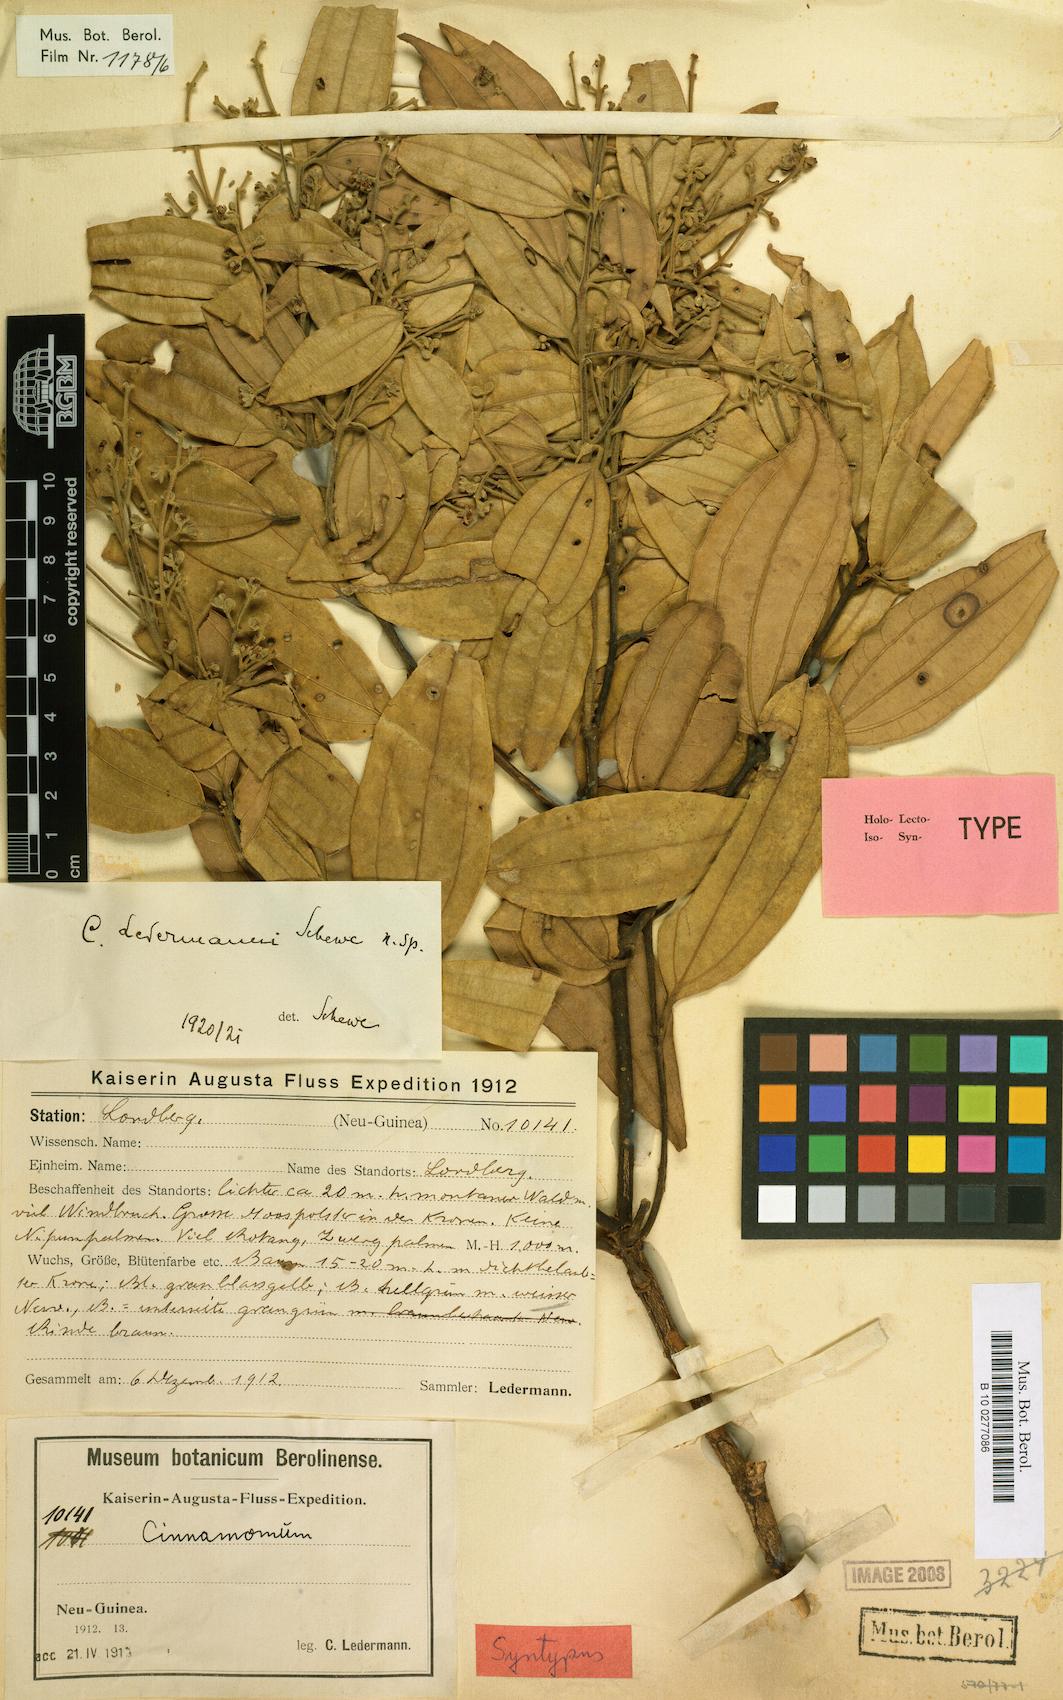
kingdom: Plantae
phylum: Tracheophyta
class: Magnoliopsida
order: Laurales
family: Lauraceae
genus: Cinnamomum
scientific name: Cinnamomum ledermannii
